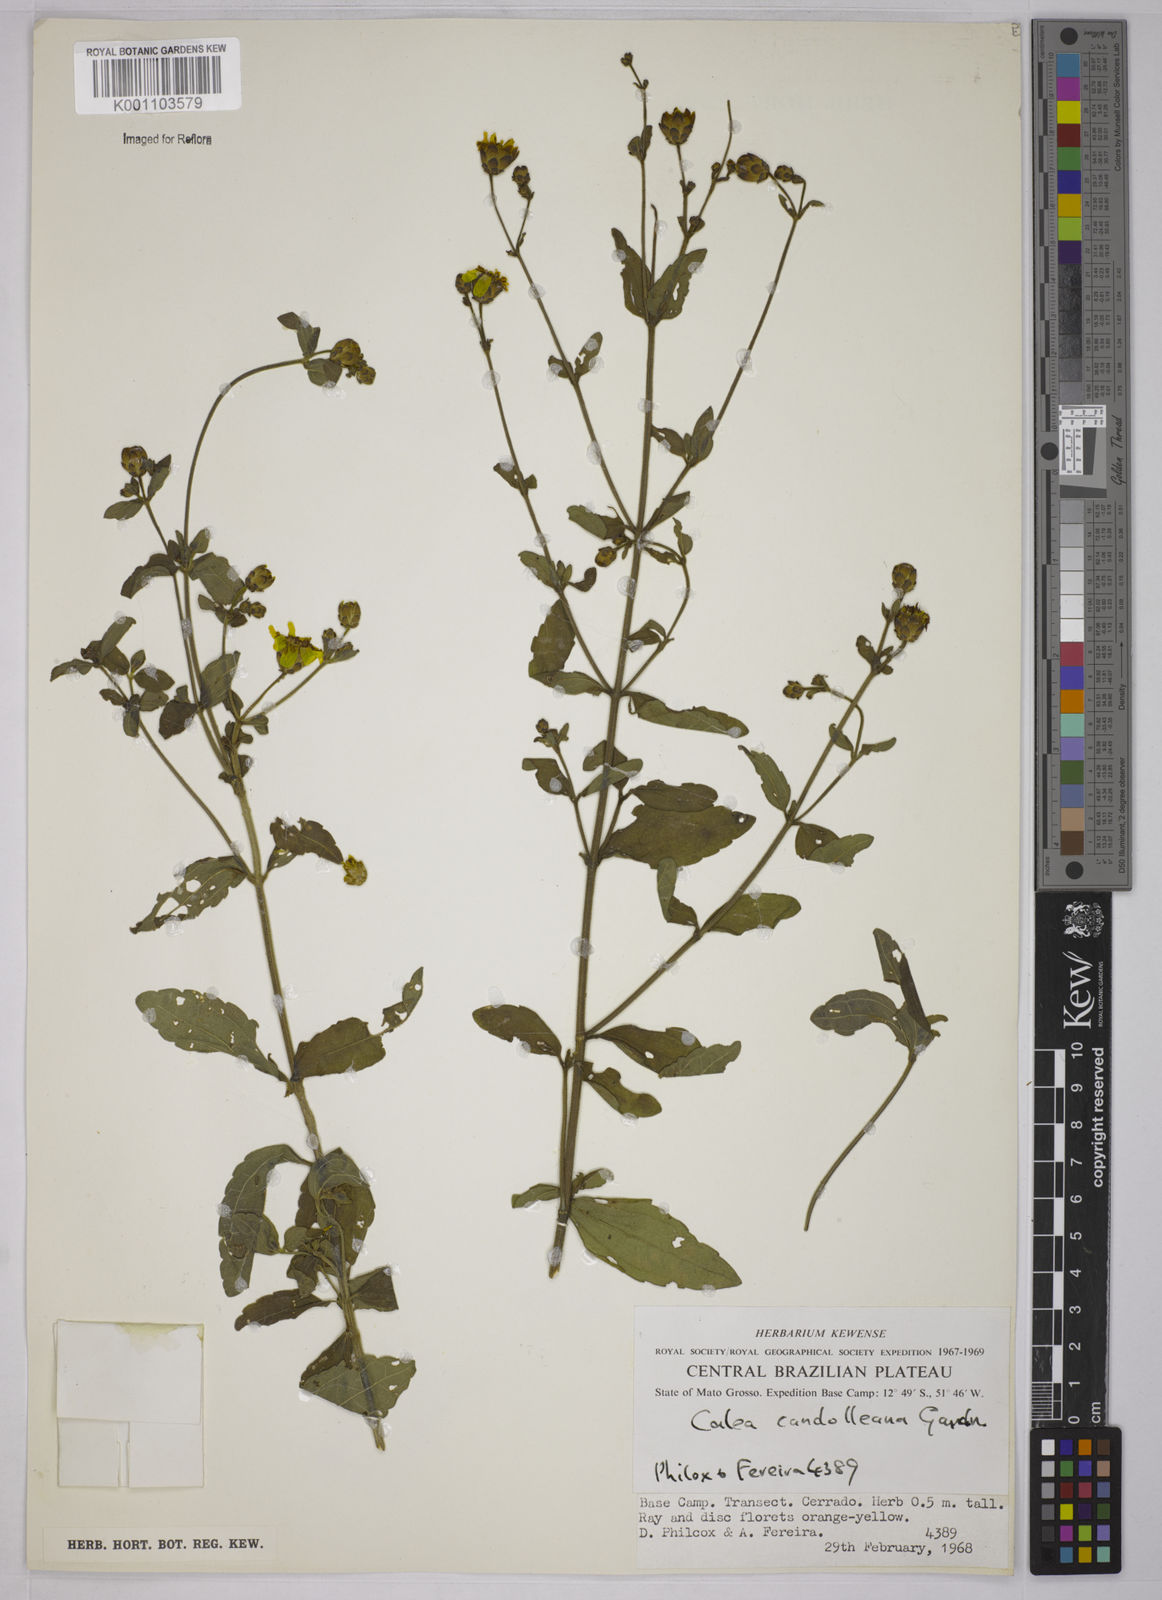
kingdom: Plantae
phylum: Tracheophyta
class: Magnoliopsida
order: Asterales
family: Asteraceae
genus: Calea
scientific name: Calea candolleana
